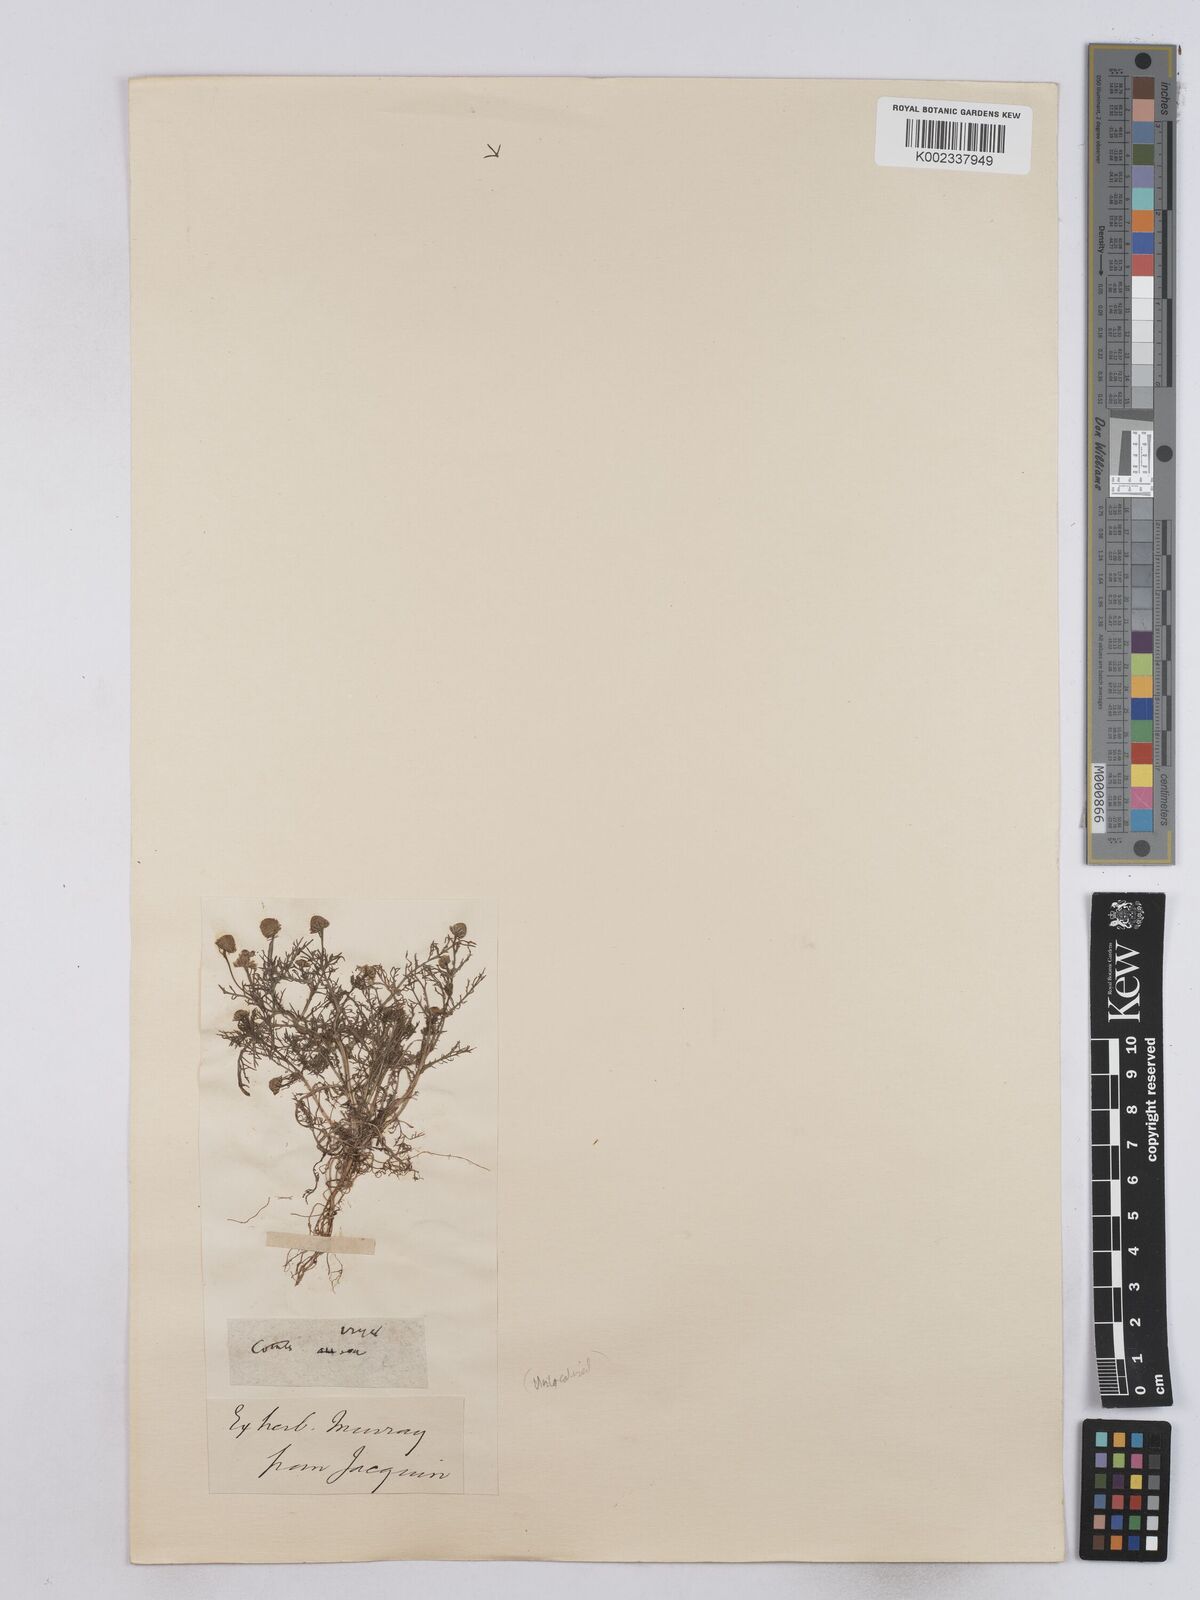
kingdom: Plantae
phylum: Tracheophyta
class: Magnoliopsida
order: Asterales
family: Asteraceae
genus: Matricaria
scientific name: Matricaria
